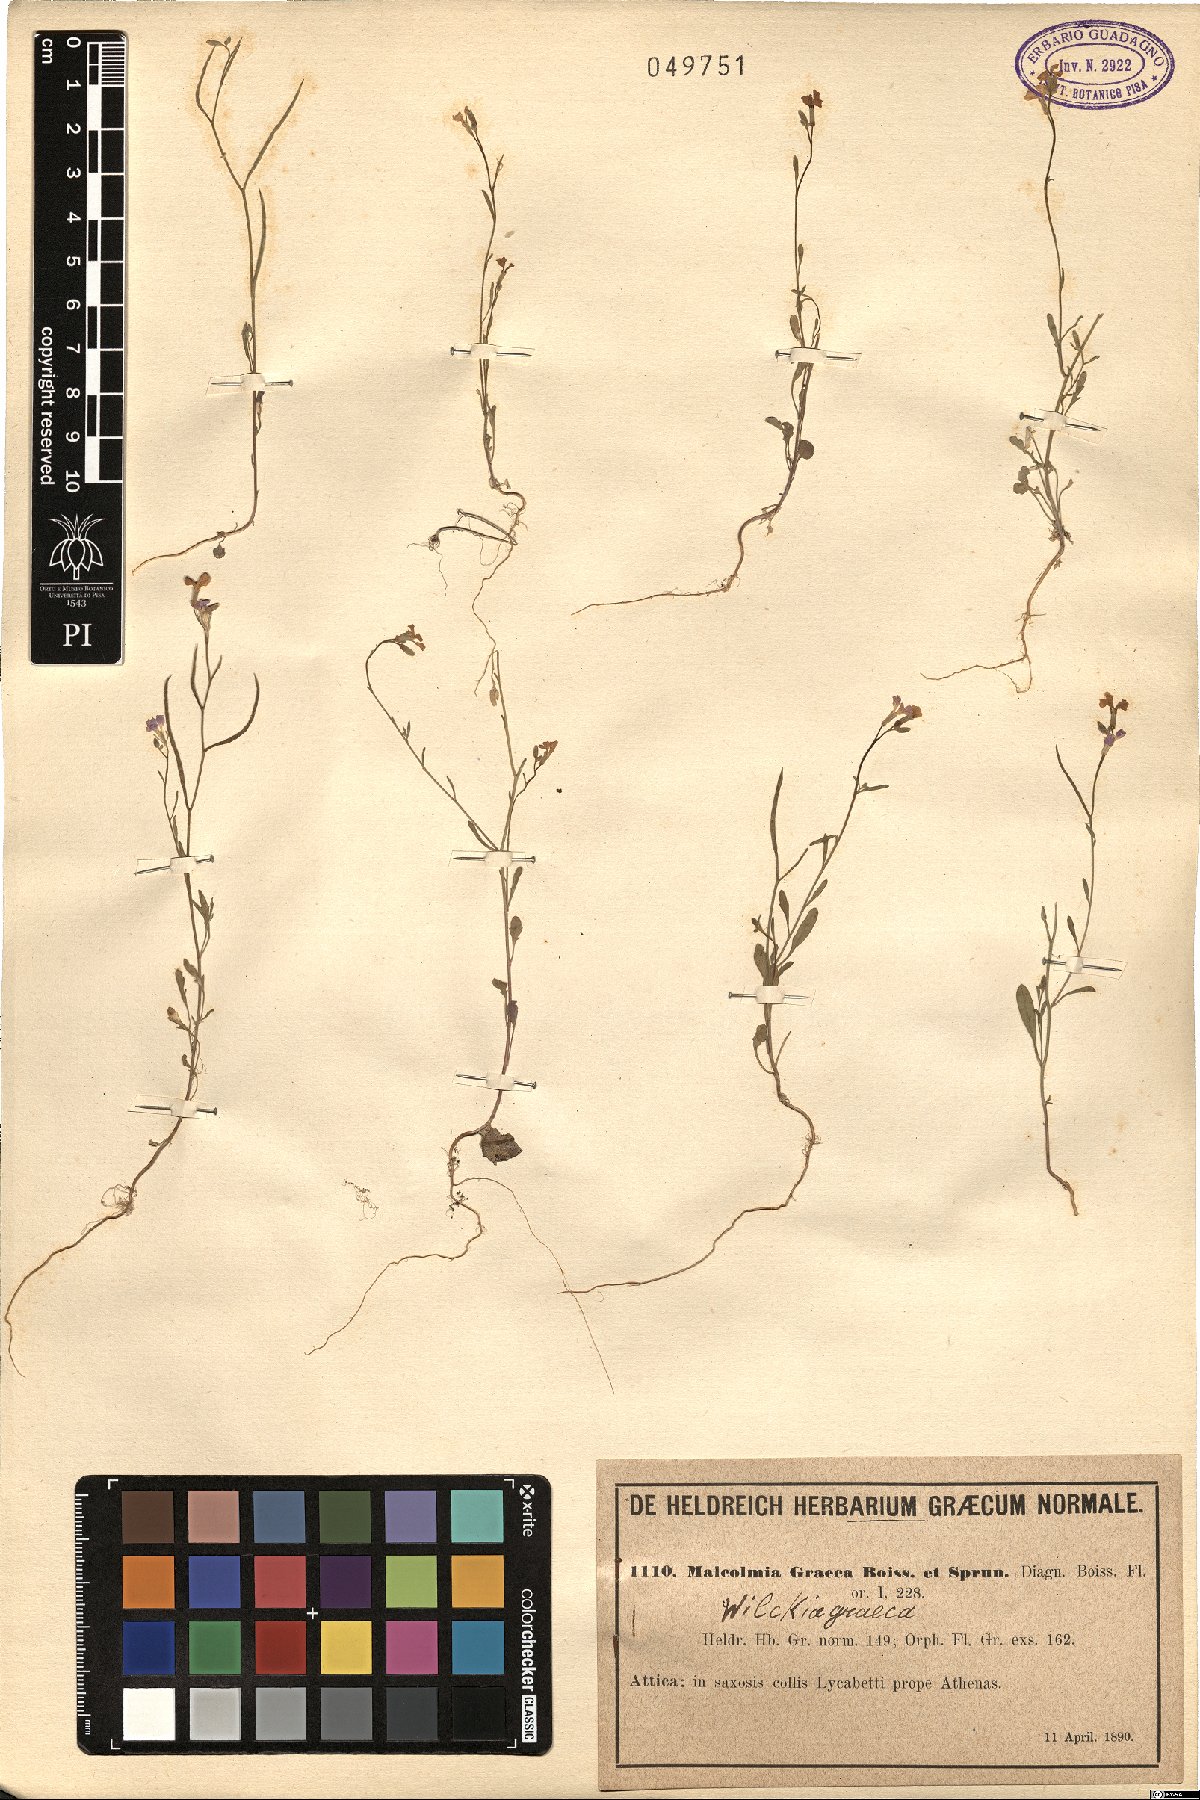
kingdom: Plantae
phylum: Tracheophyta
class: Magnoliopsida
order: Brassicales
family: Brassicaceae
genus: Malcolmia
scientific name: Malcolmia graeca
